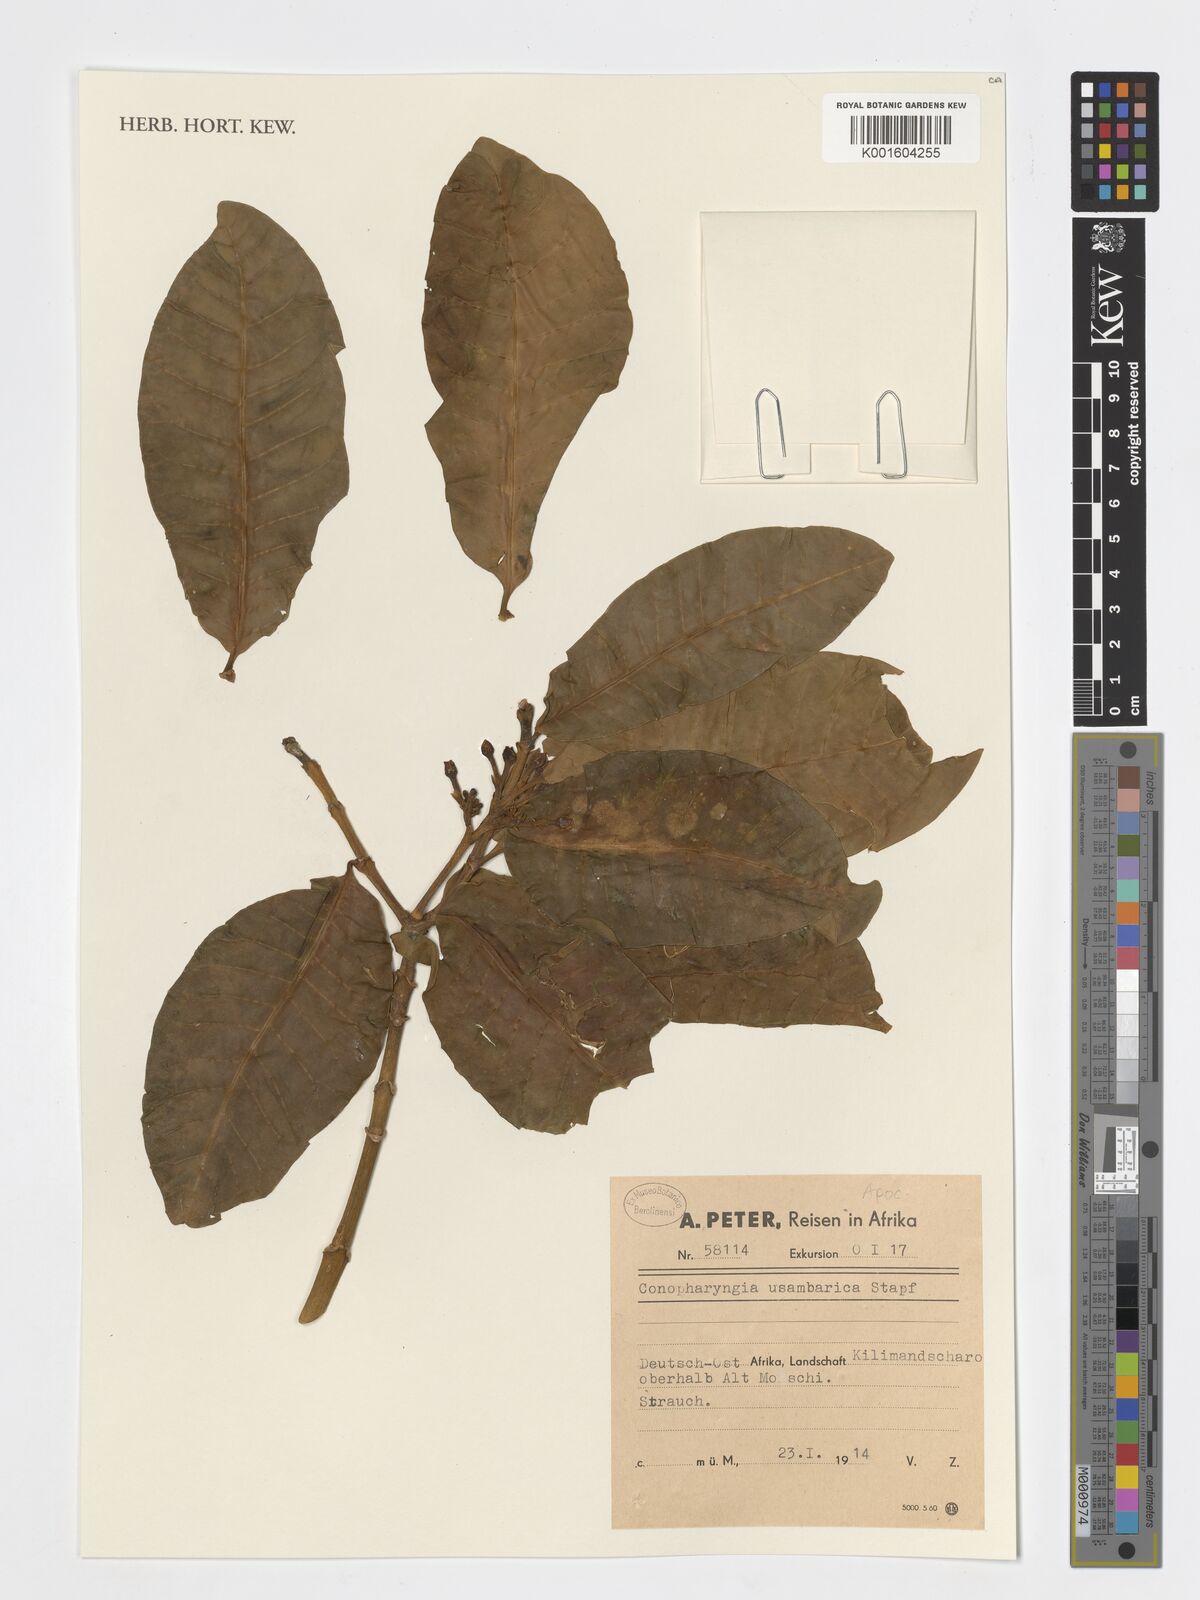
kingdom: Plantae
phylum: Tracheophyta
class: Magnoliopsida
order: Gentianales
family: Apocynaceae
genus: Tabernaemontana
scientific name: Tabernaemontana ventricosa
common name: Forest toad-tree
